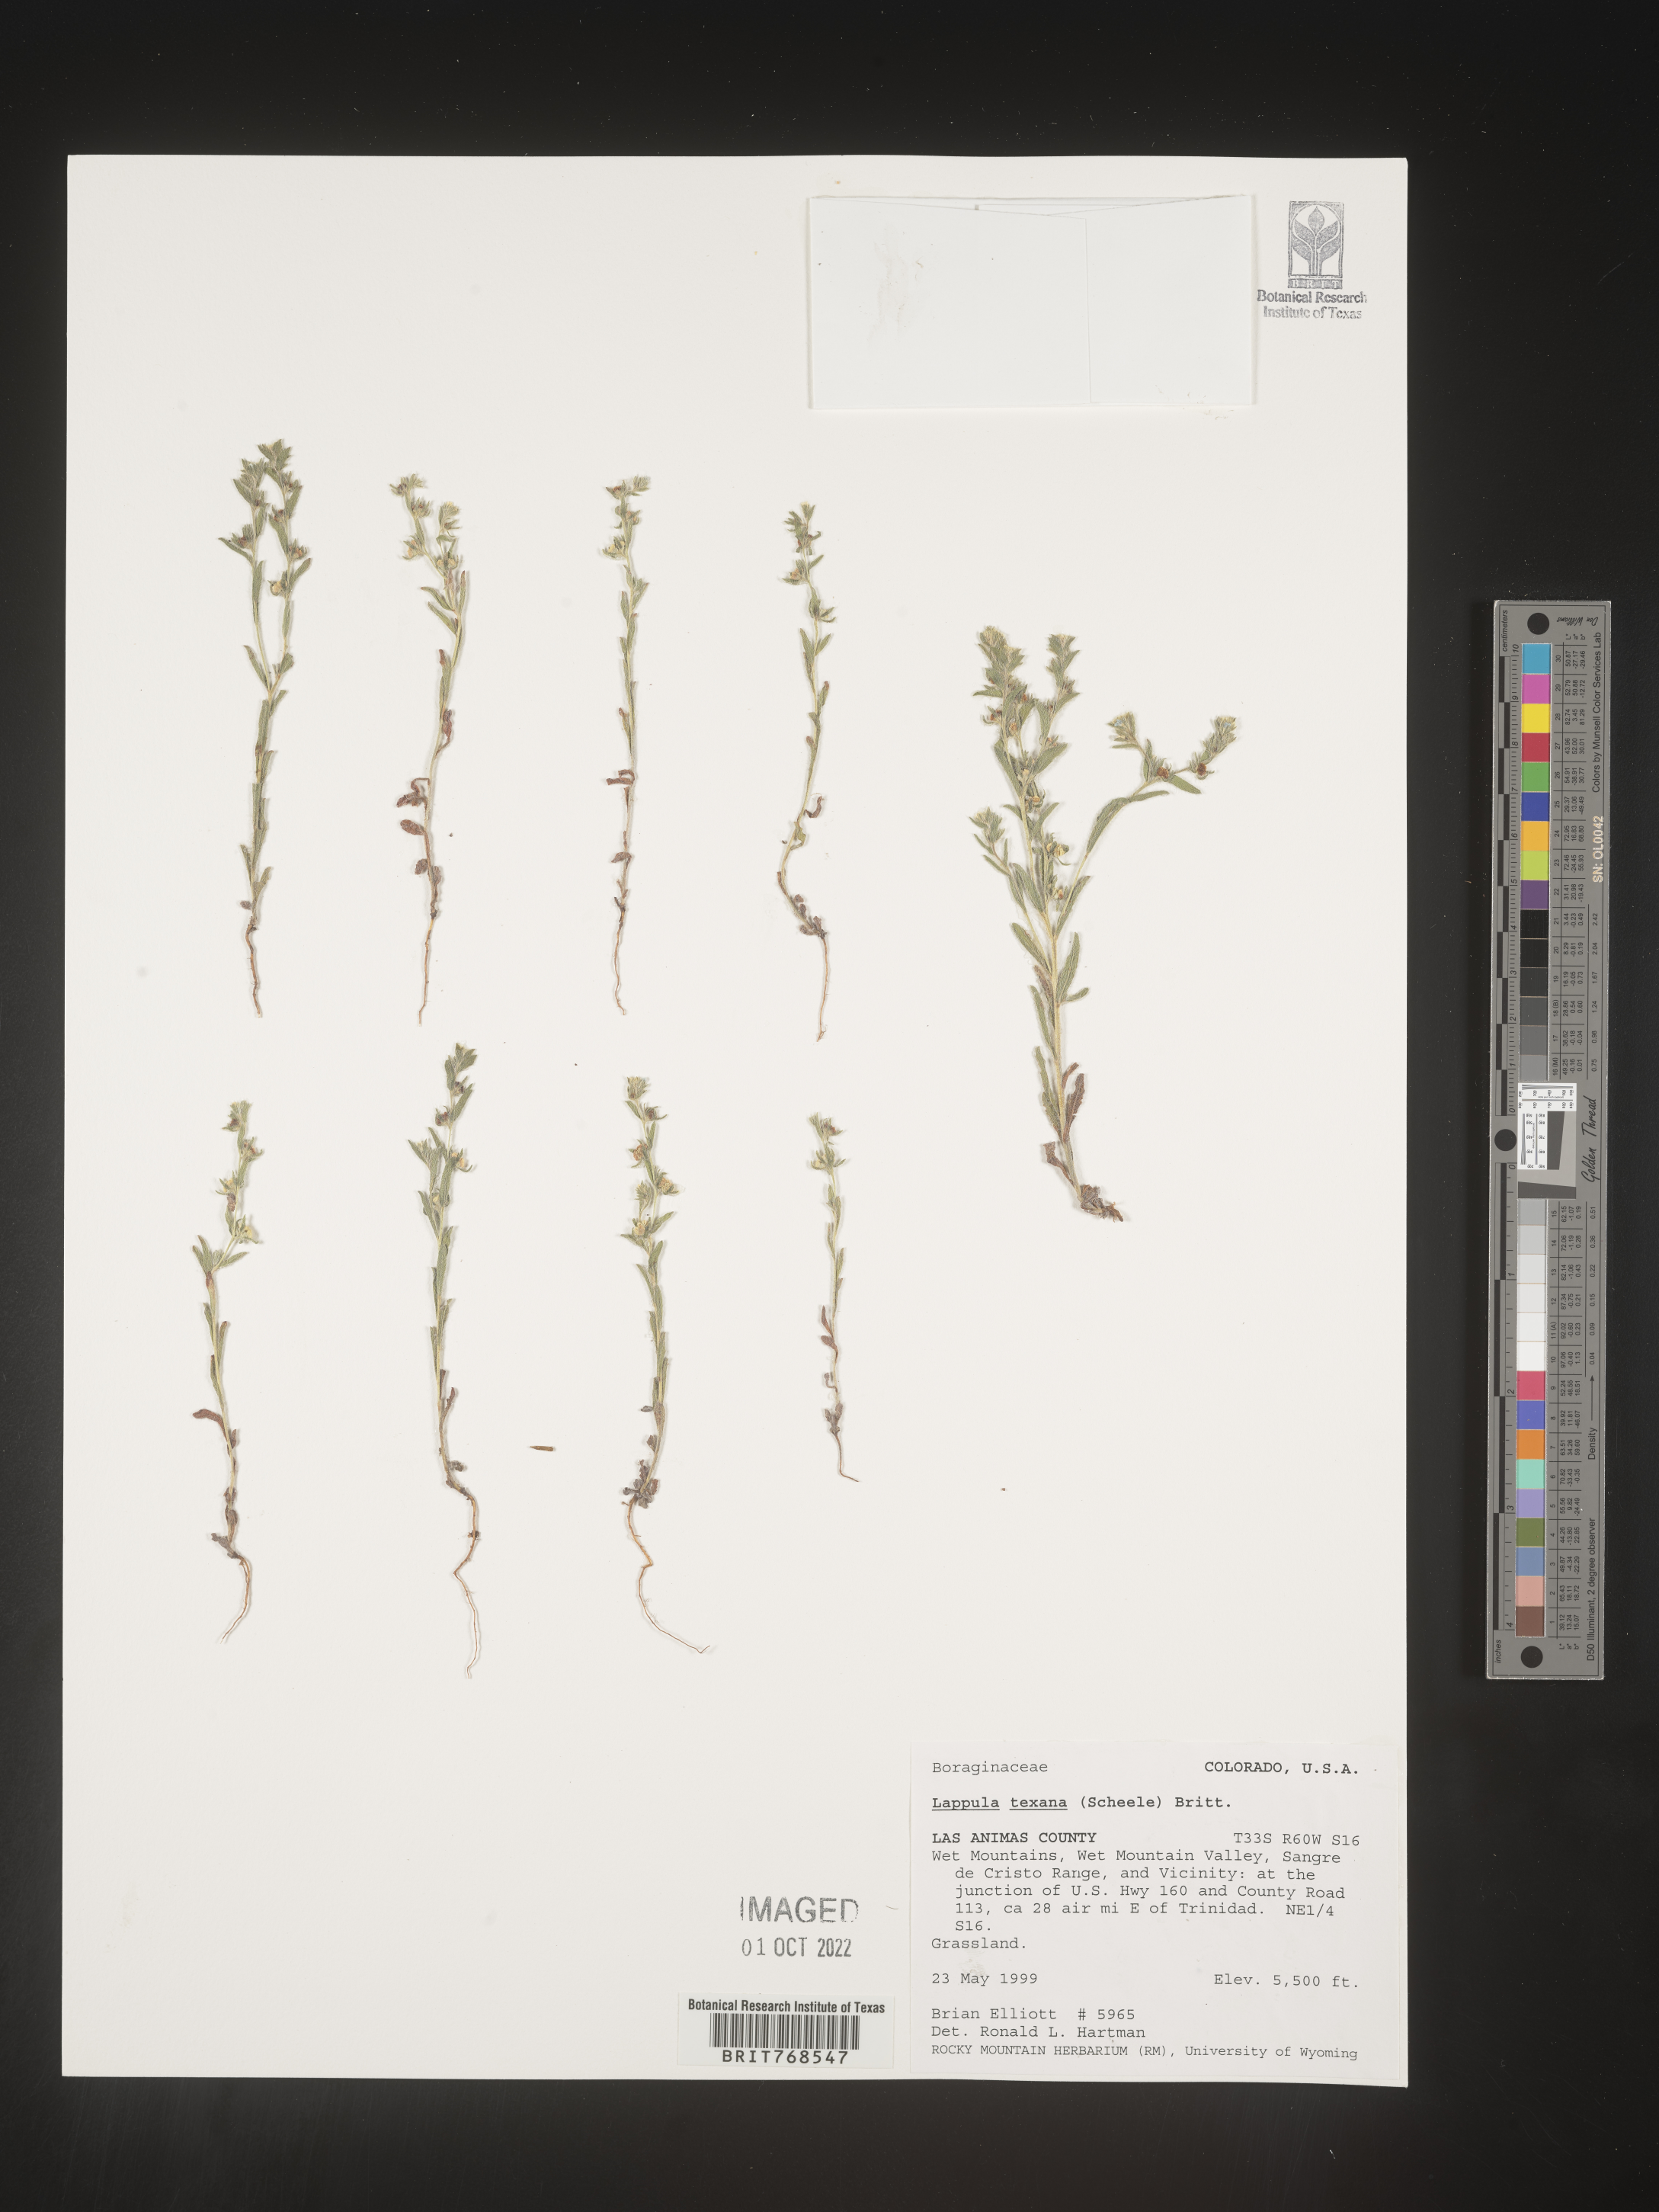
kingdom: Plantae
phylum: Tracheophyta
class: Magnoliopsida
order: Boraginales
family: Boraginaceae
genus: Lappula
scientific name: Lappula
